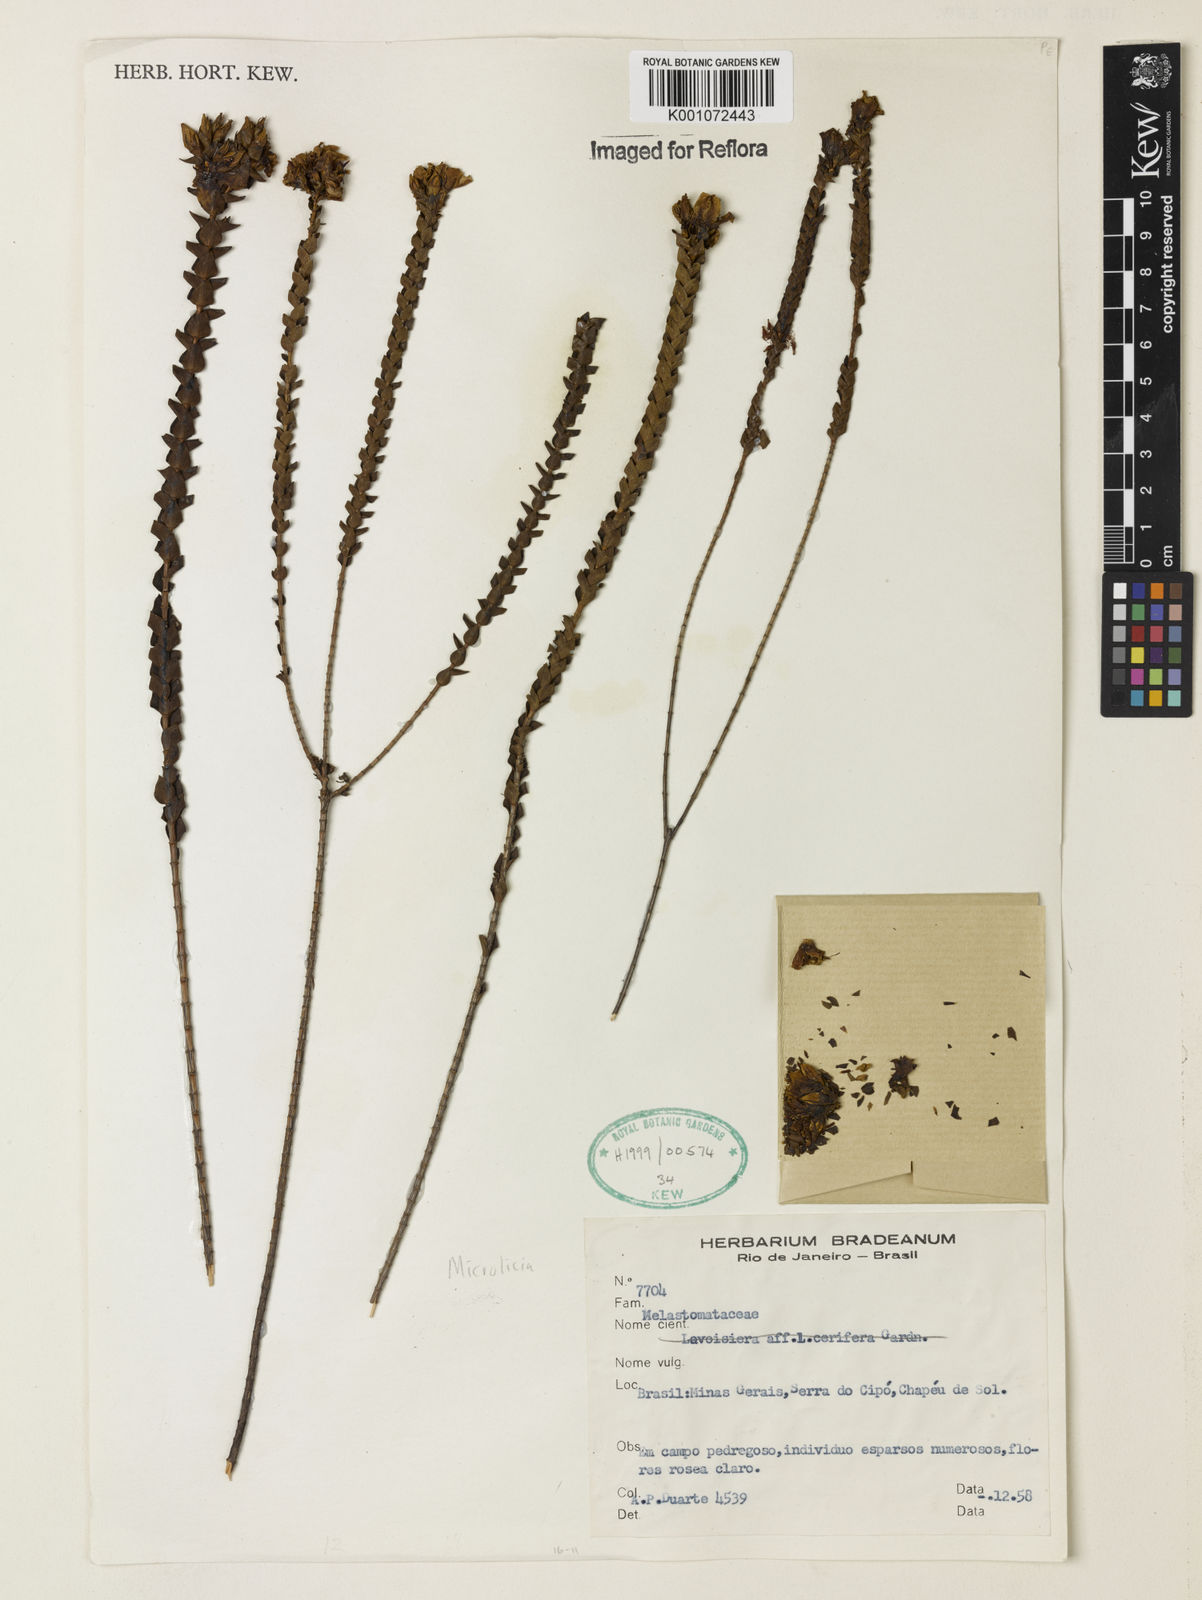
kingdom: Plantae
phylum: Tracheophyta
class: Magnoliopsida
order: Myrtales
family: Melastomataceae
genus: Microlicia
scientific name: Microlicia
